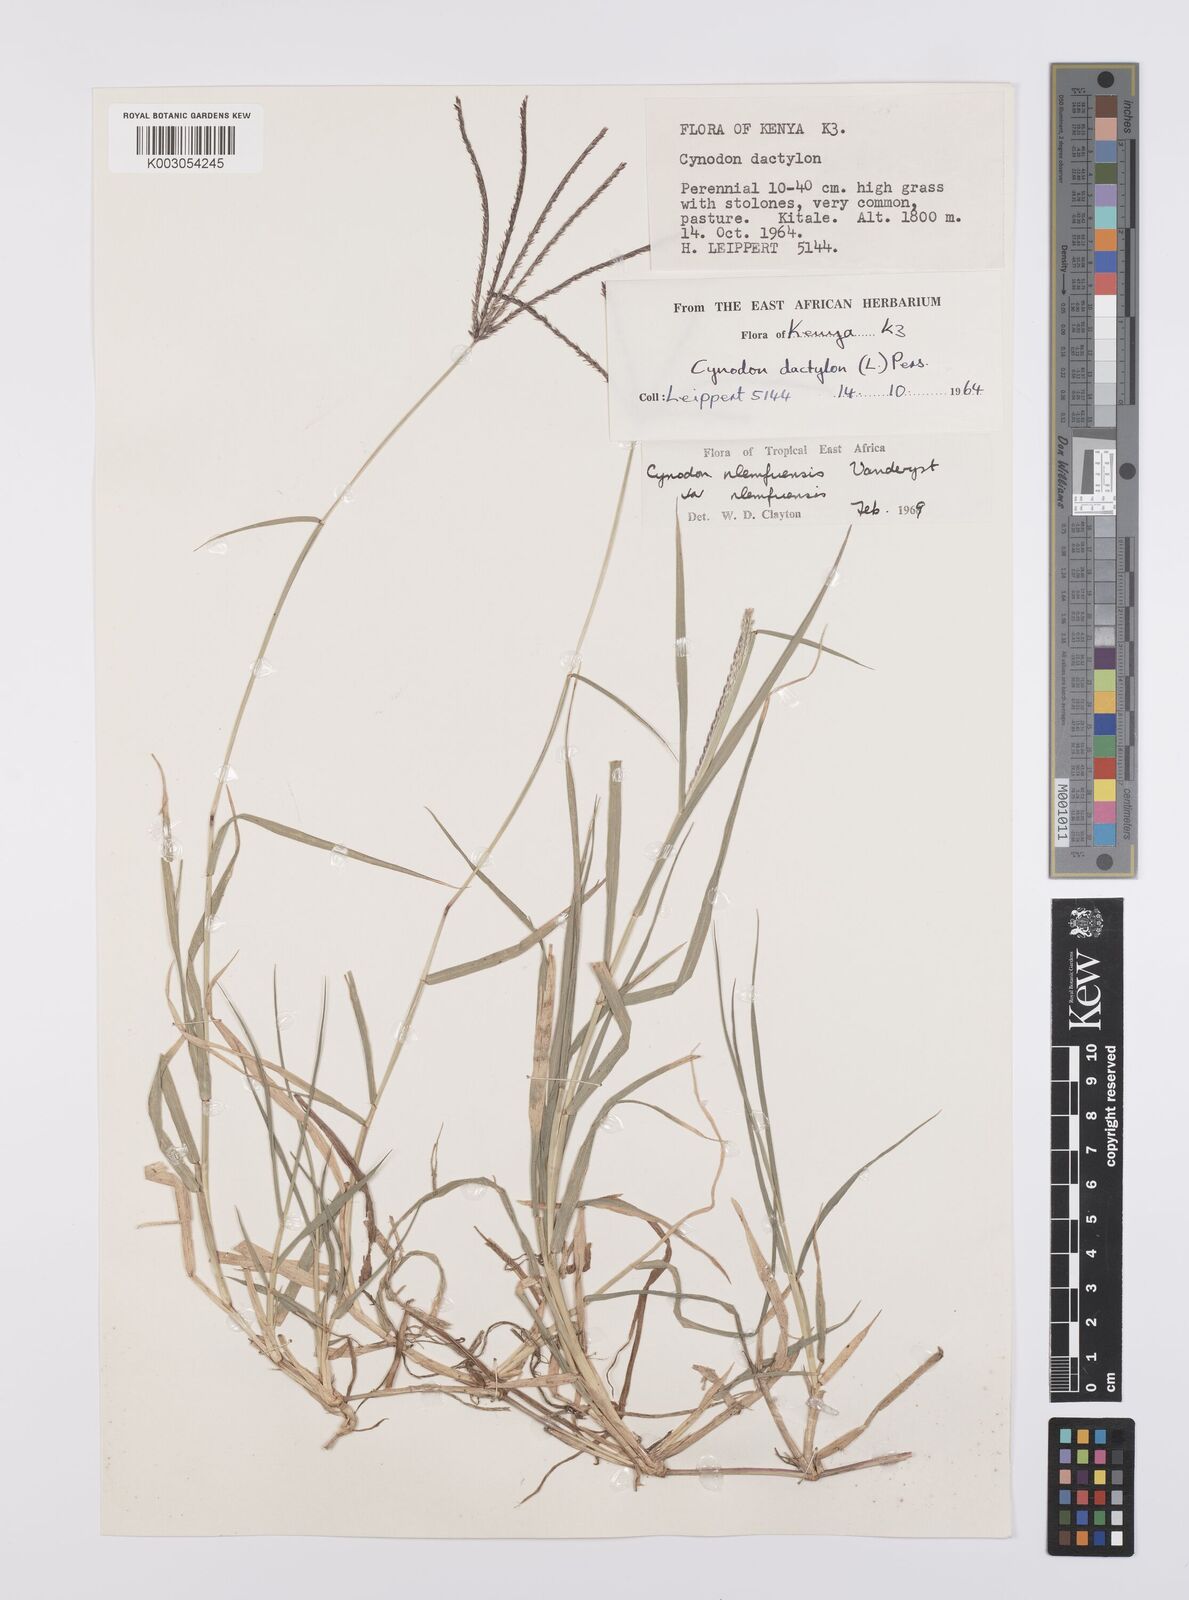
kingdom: Plantae
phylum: Tracheophyta
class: Liliopsida
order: Poales
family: Poaceae
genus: Cynodon
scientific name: Cynodon nlemfuensis
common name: African bermudagrass
